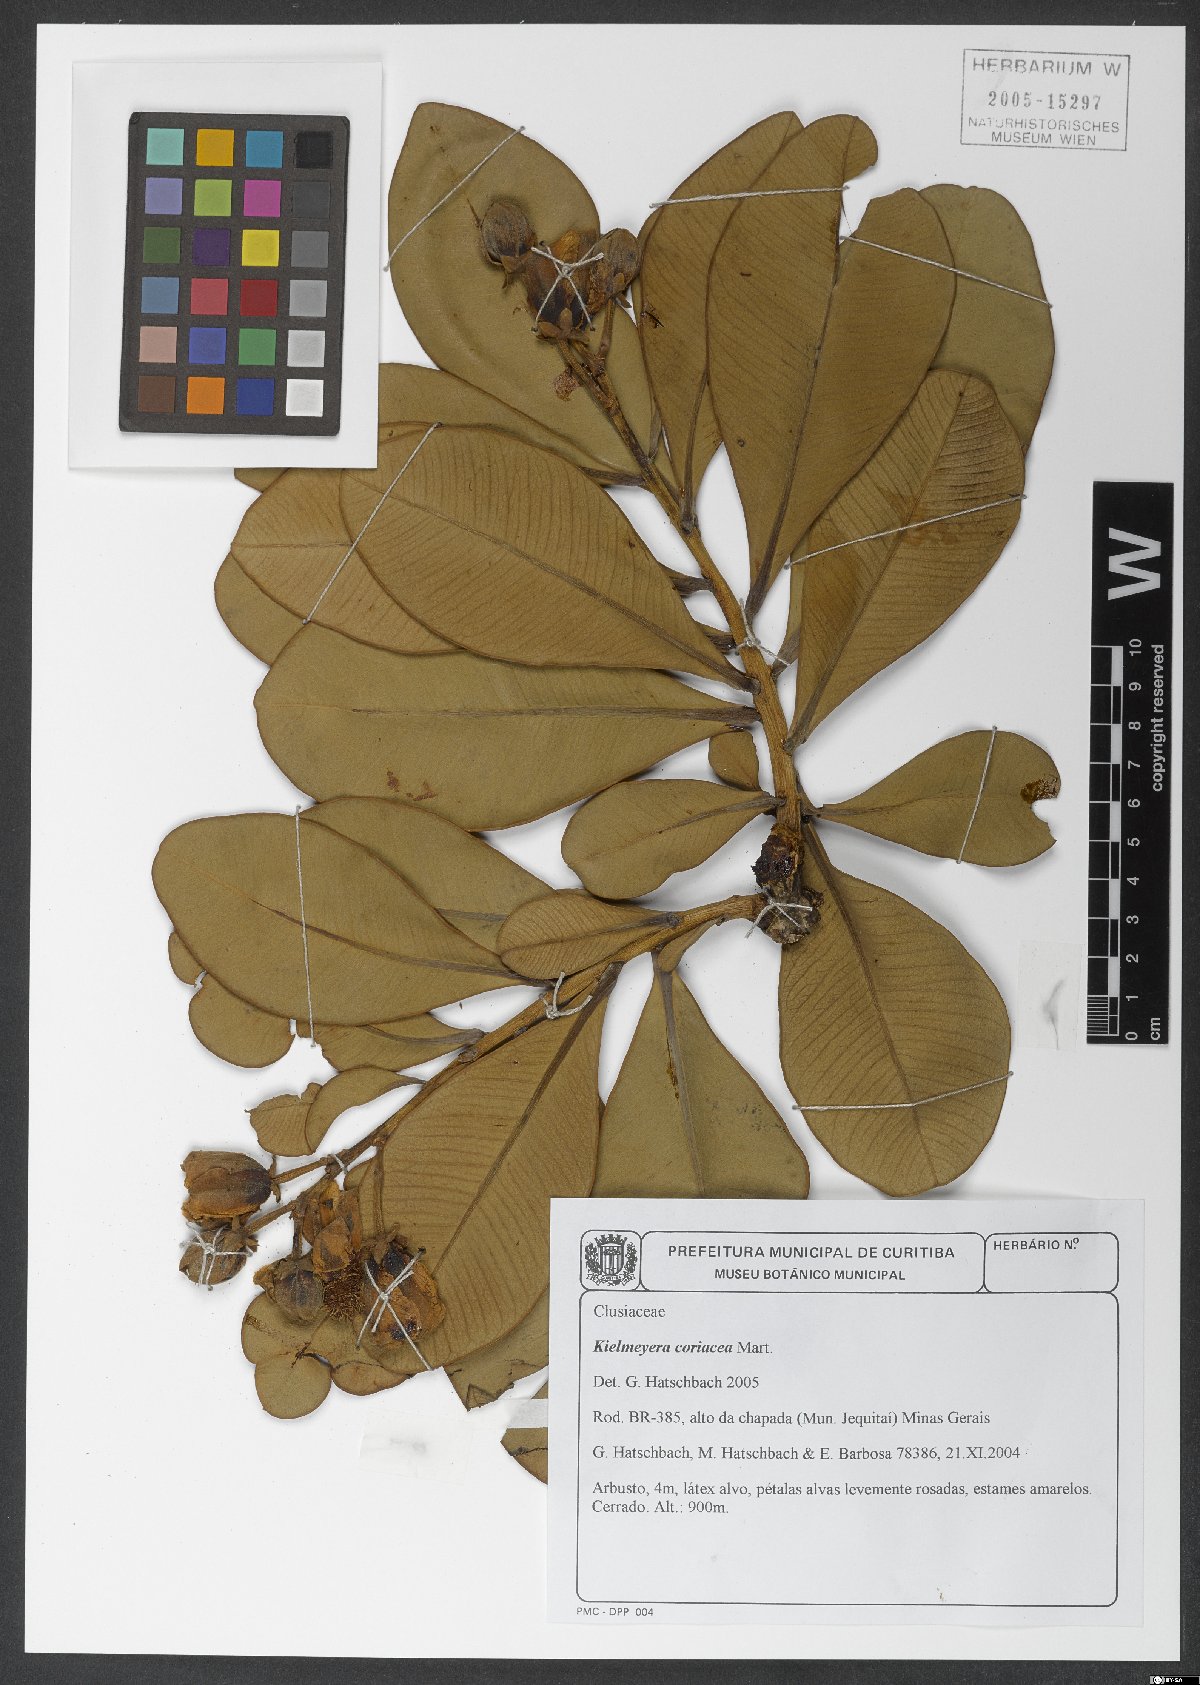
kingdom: Plantae
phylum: Tracheophyta
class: Magnoliopsida
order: Malpighiales
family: Calophyllaceae
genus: Kielmeyera
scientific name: Kielmeyera coriacea
